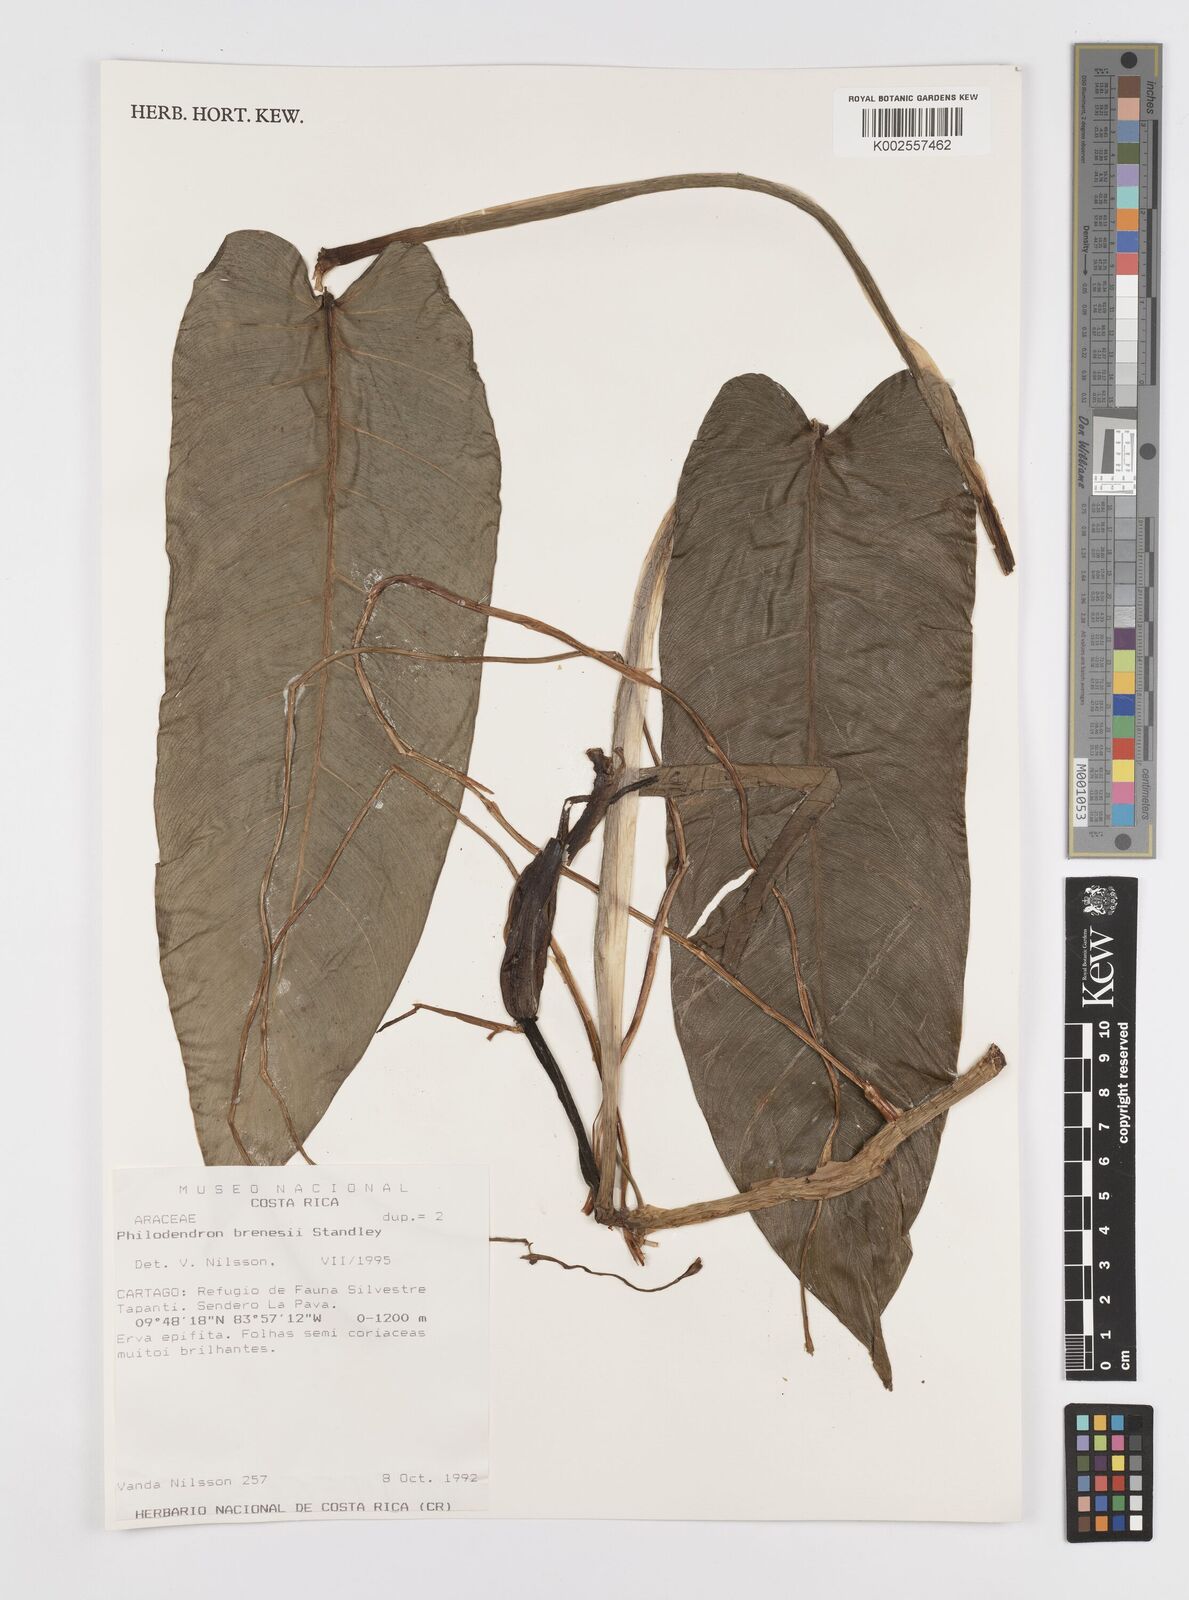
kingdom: Plantae
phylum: Tracheophyta
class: Liliopsida
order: Alismatales
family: Araceae
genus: Philodendron
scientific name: Philodendron brenesii
